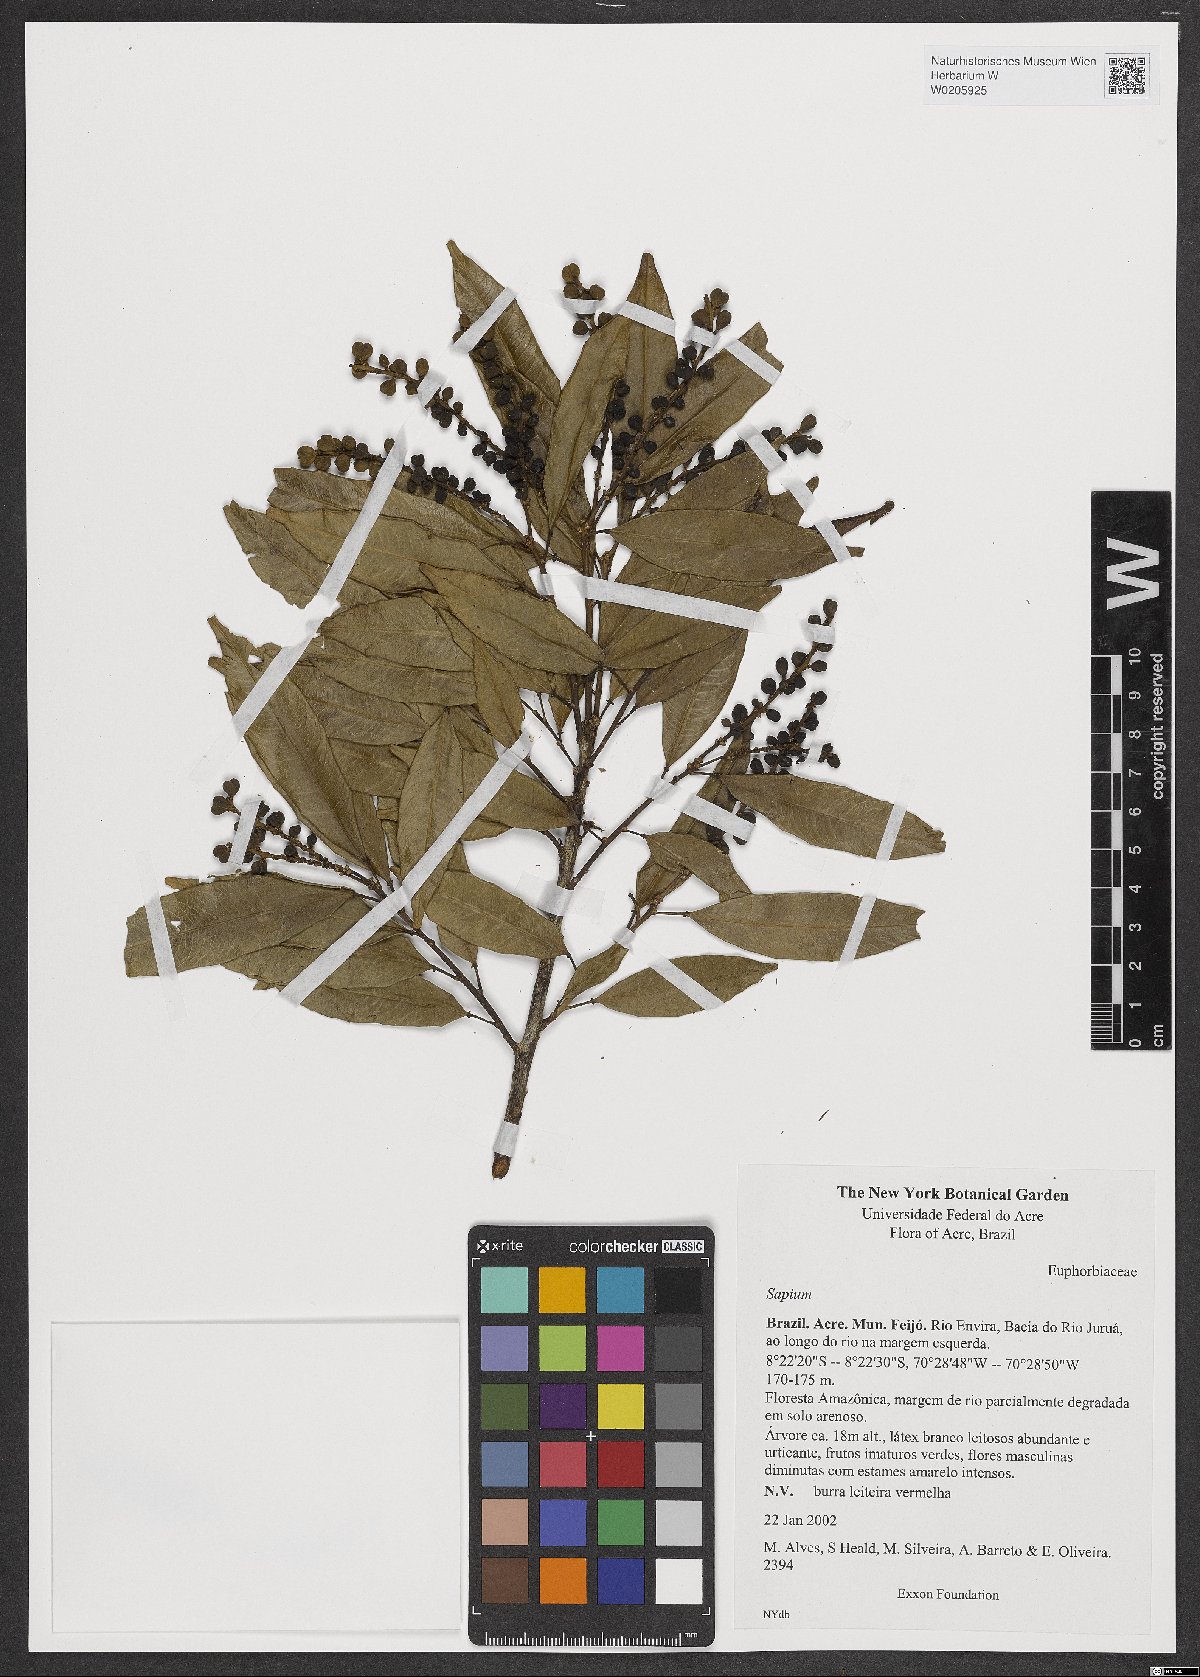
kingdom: Plantae
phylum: Tracheophyta
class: Magnoliopsida
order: Malpighiales
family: Euphorbiaceae
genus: Sapium
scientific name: Sapium
